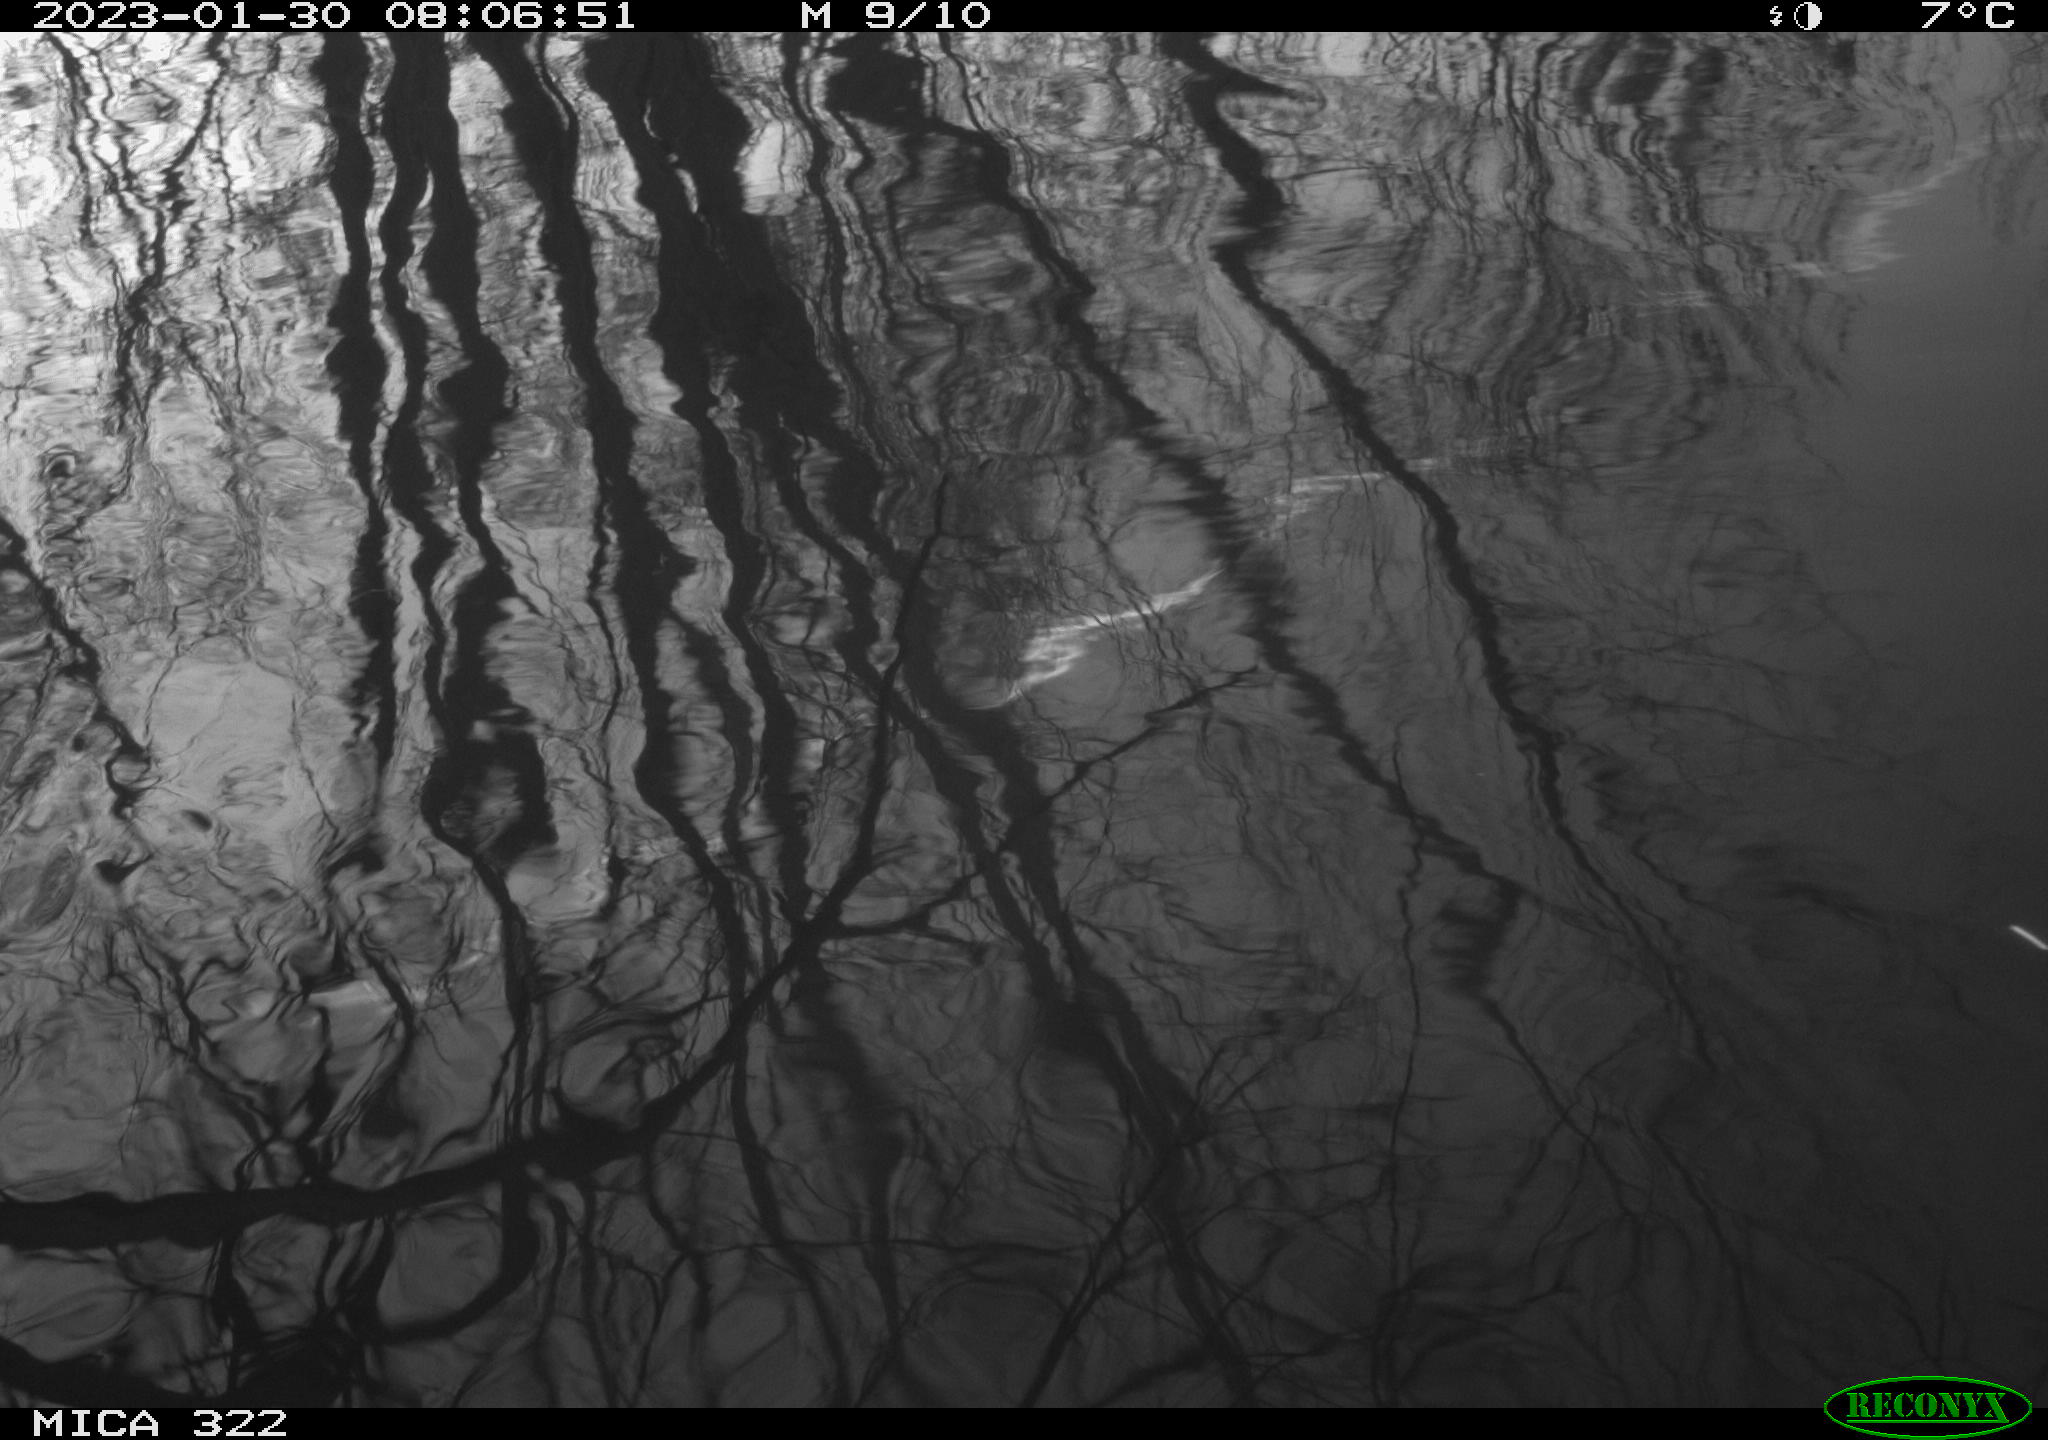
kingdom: Animalia
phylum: Chordata
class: Aves
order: Gruiformes
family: Rallidae
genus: Gallinula
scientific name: Gallinula chloropus
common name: Common moorhen
